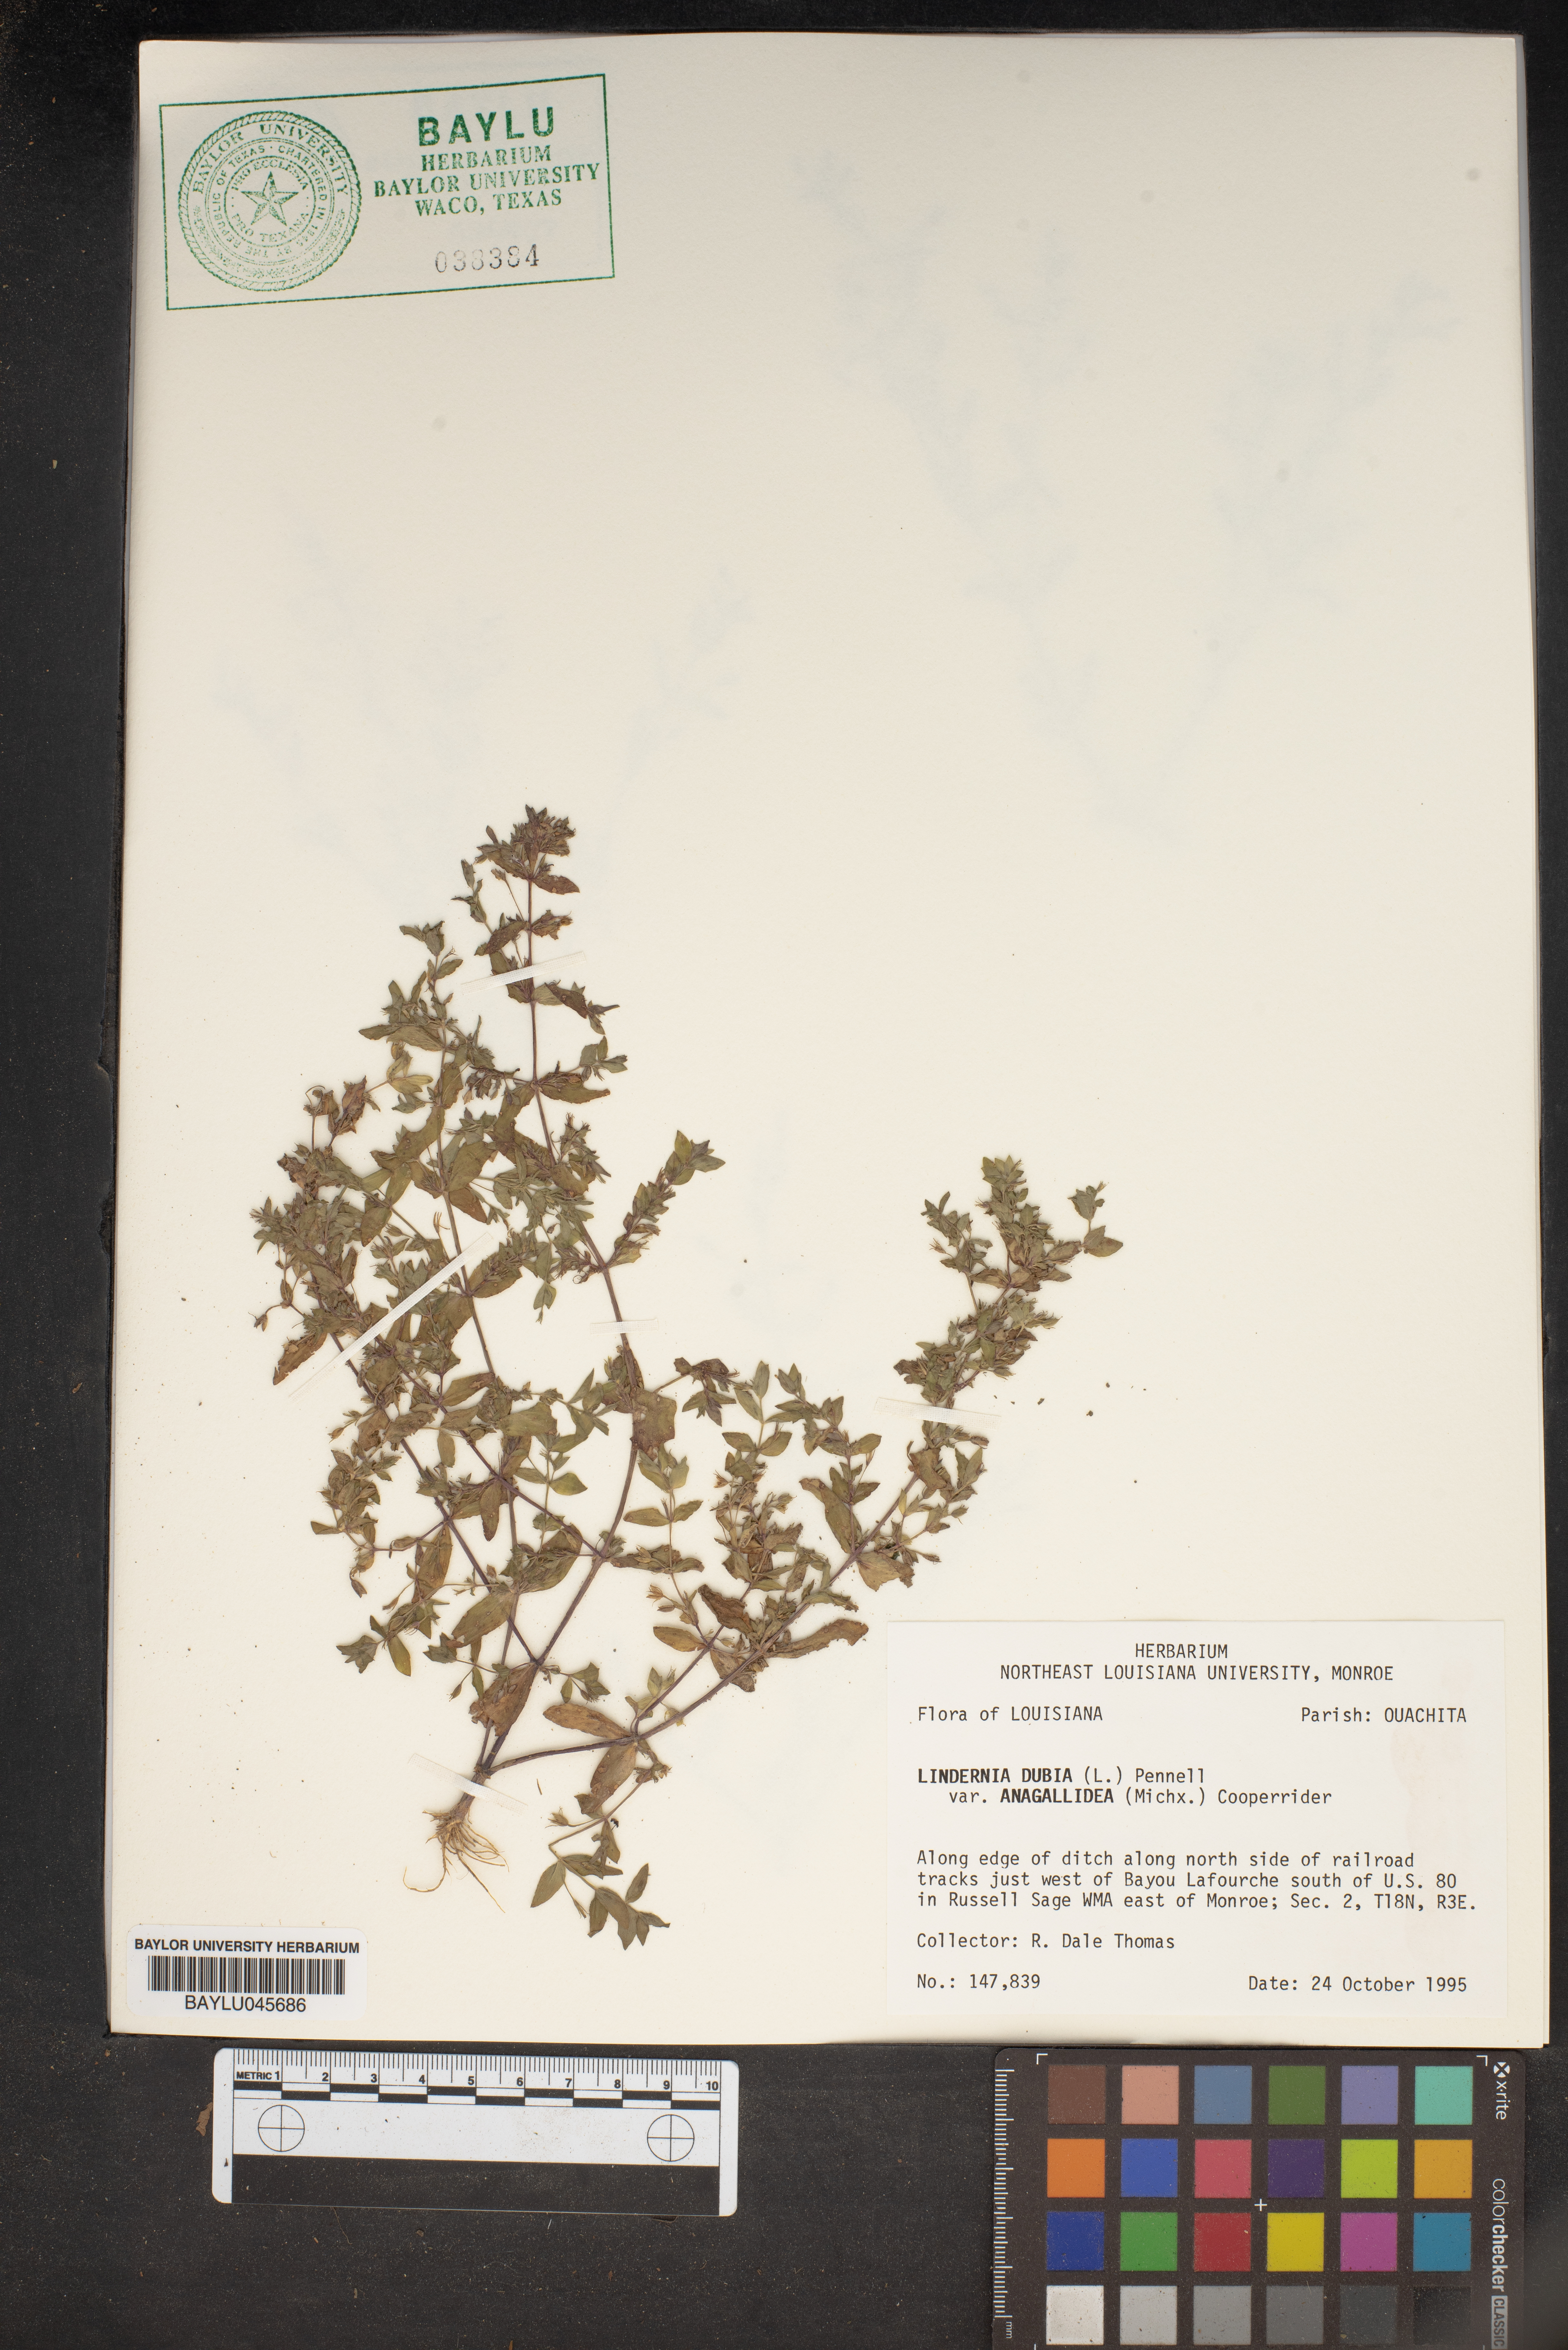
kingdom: Plantae
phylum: Tracheophyta
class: Magnoliopsida
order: Lamiales
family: Linderniaceae
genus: Lindernia
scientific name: Lindernia dubia
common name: Annual false pimpernel
